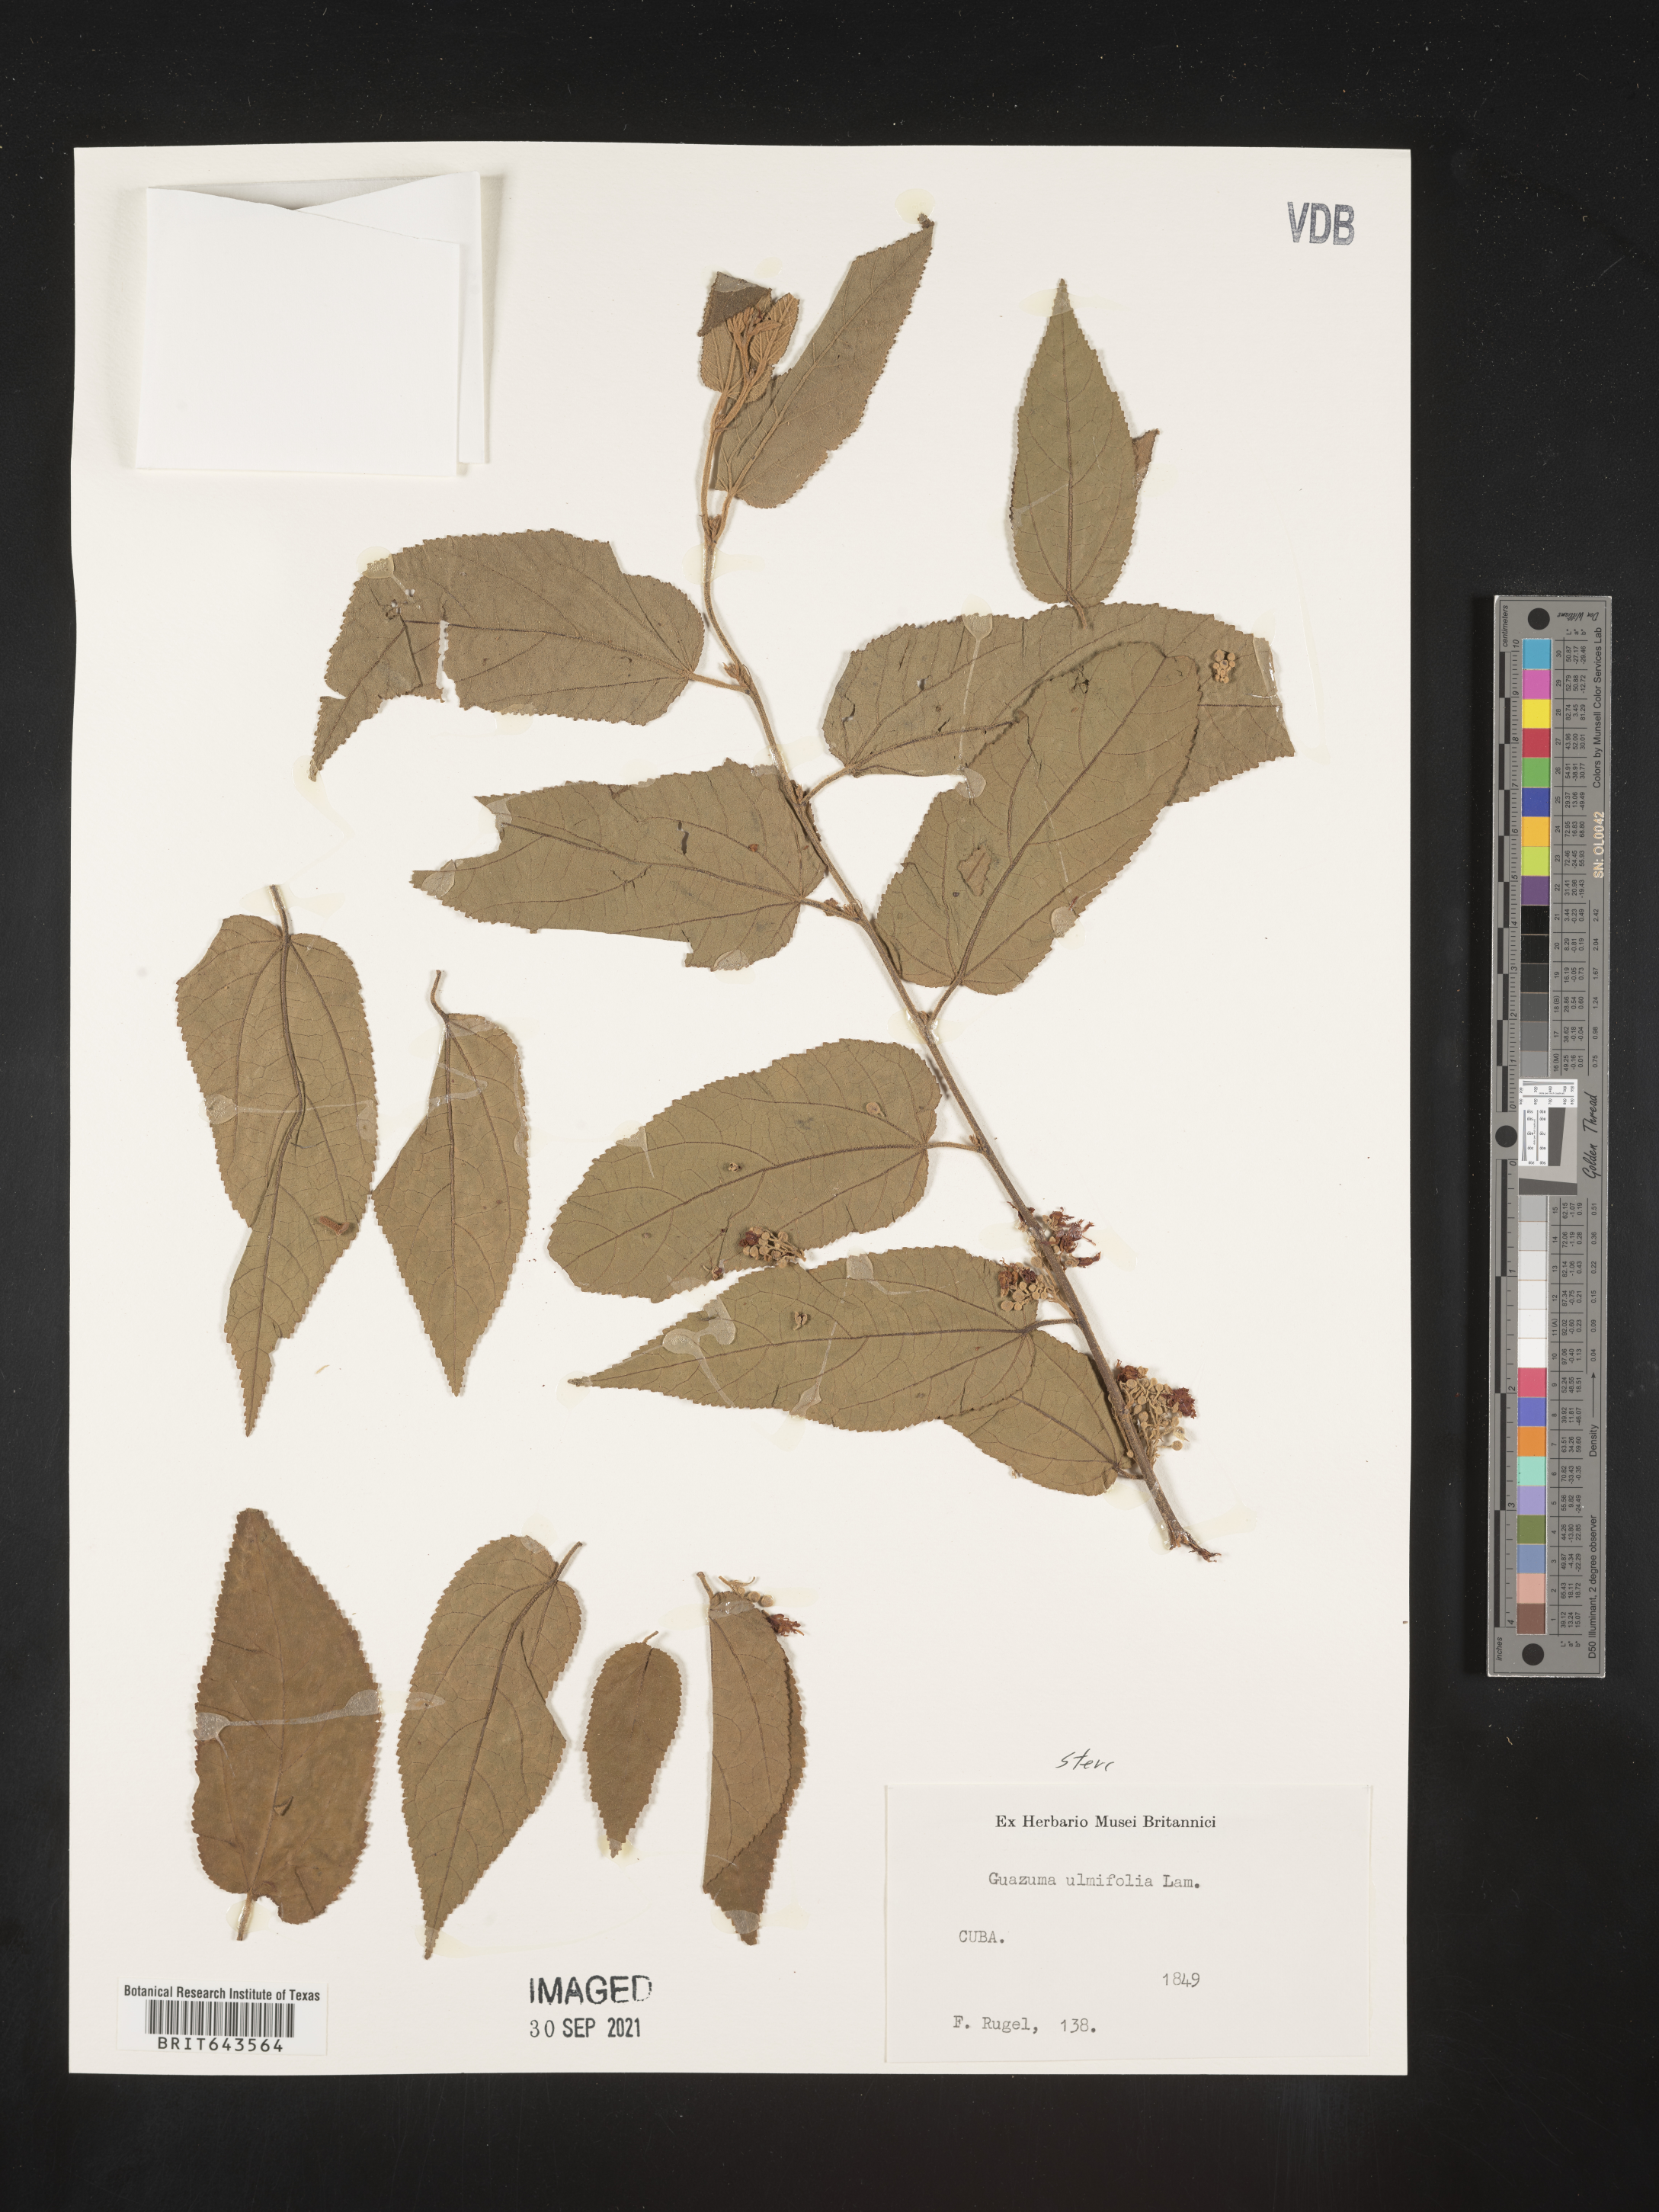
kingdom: Plantae
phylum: Tracheophyta
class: Magnoliopsida
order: Malvales
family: Malvaceae
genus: Guazuma
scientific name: Guazuma
